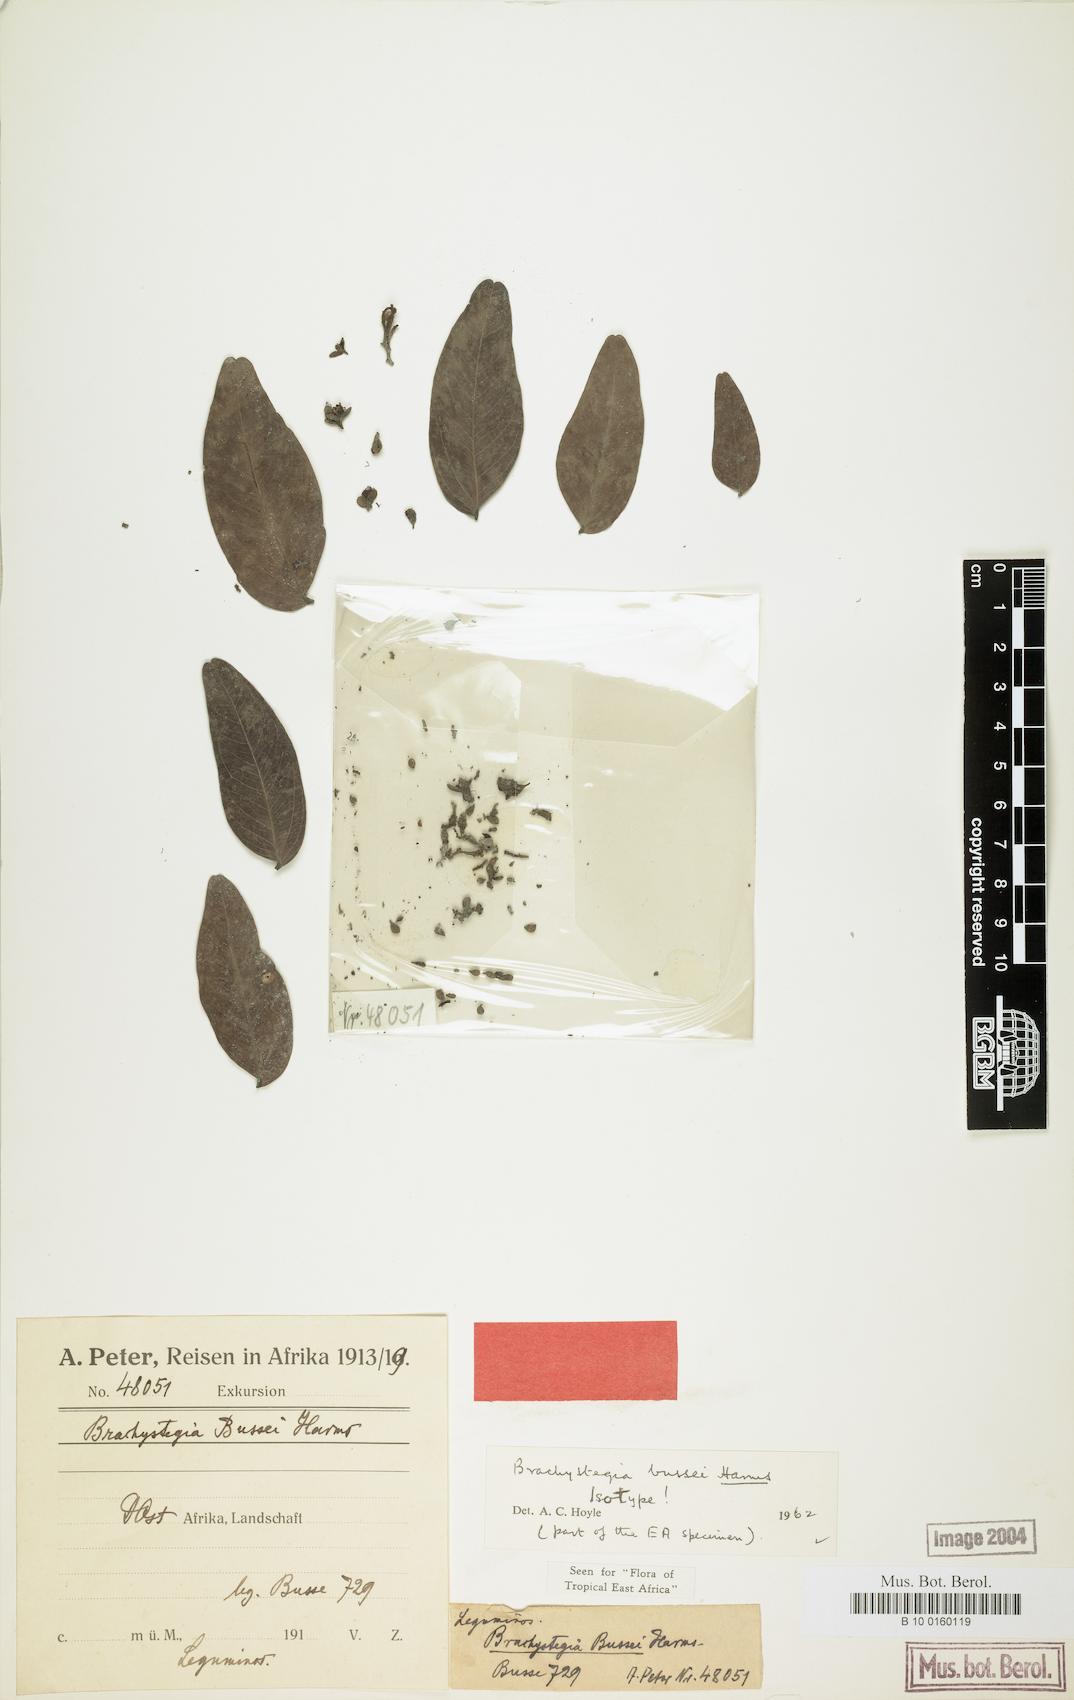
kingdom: Plantae
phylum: Tracheophyta
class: Magnoliopsida
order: Fabales
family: Fabaceae
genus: Brachystegia
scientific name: Brachystegia bussei
